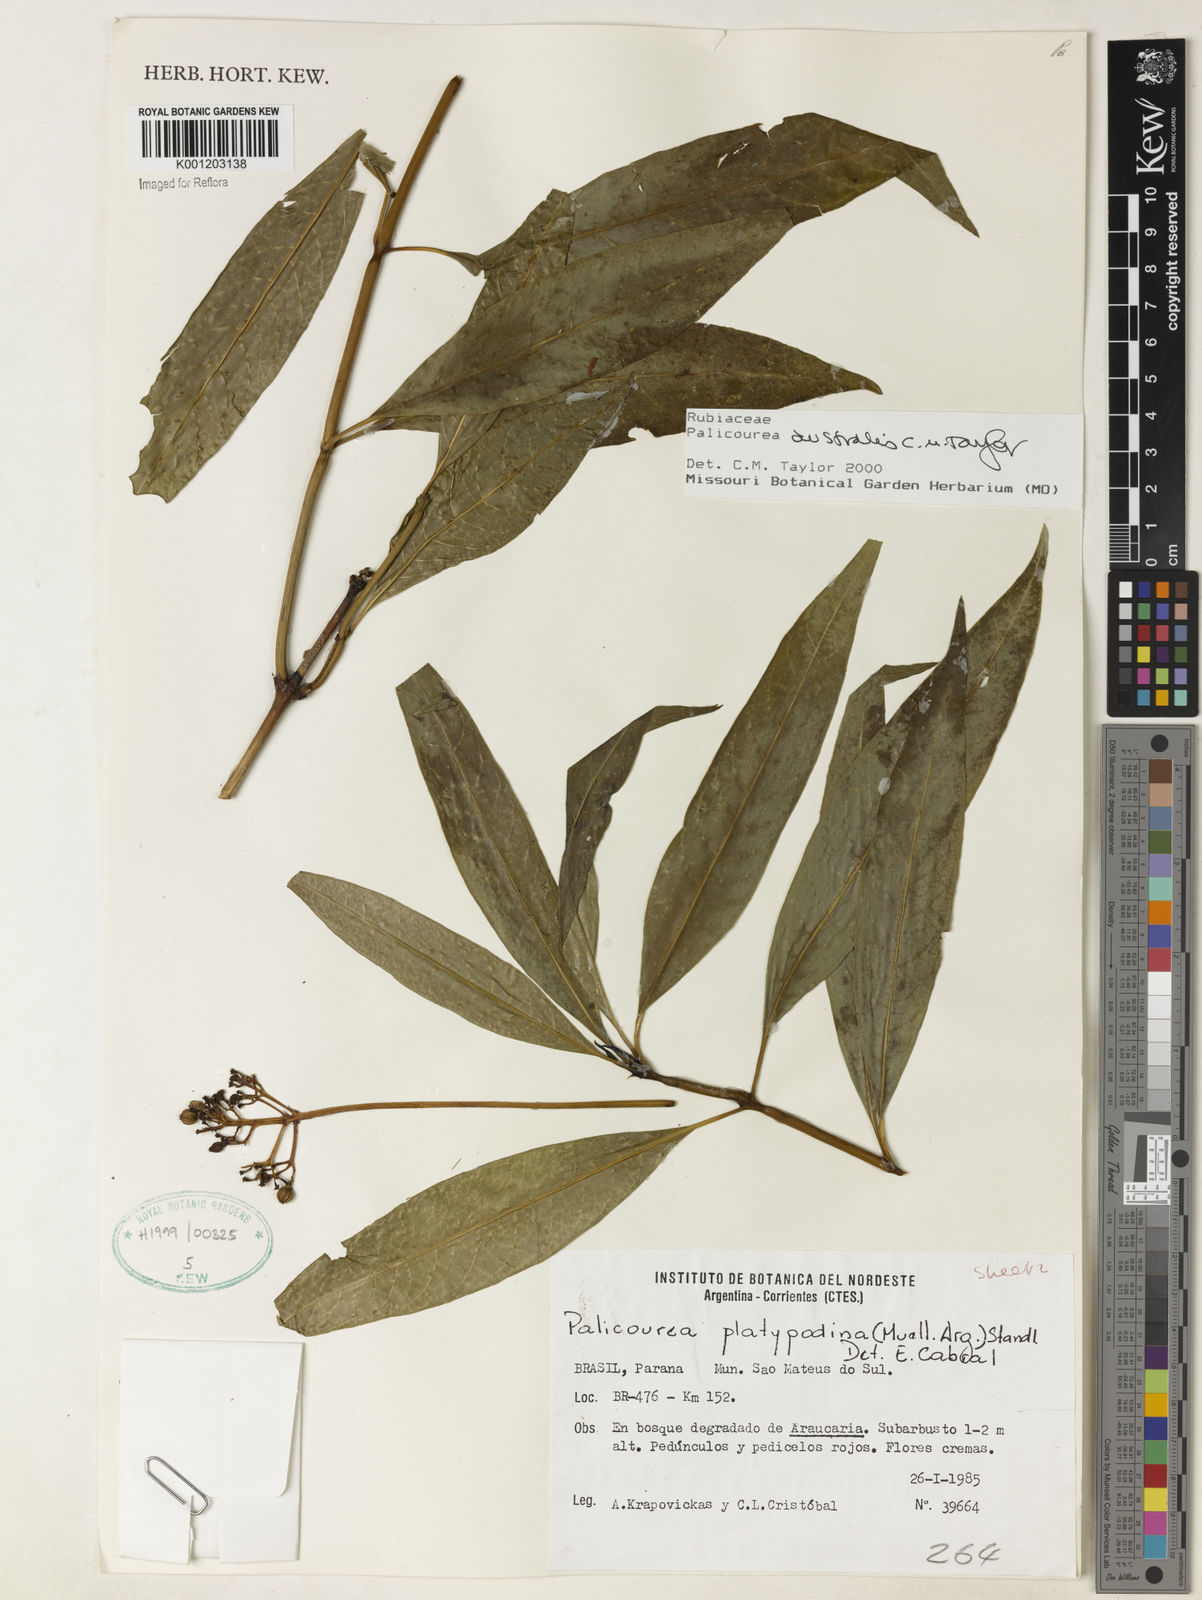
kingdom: Plantae
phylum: Tracheophyta
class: Magnoliopsida
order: Gentianales
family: Rubiaceae
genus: Palicourea
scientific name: Palicourea australis
